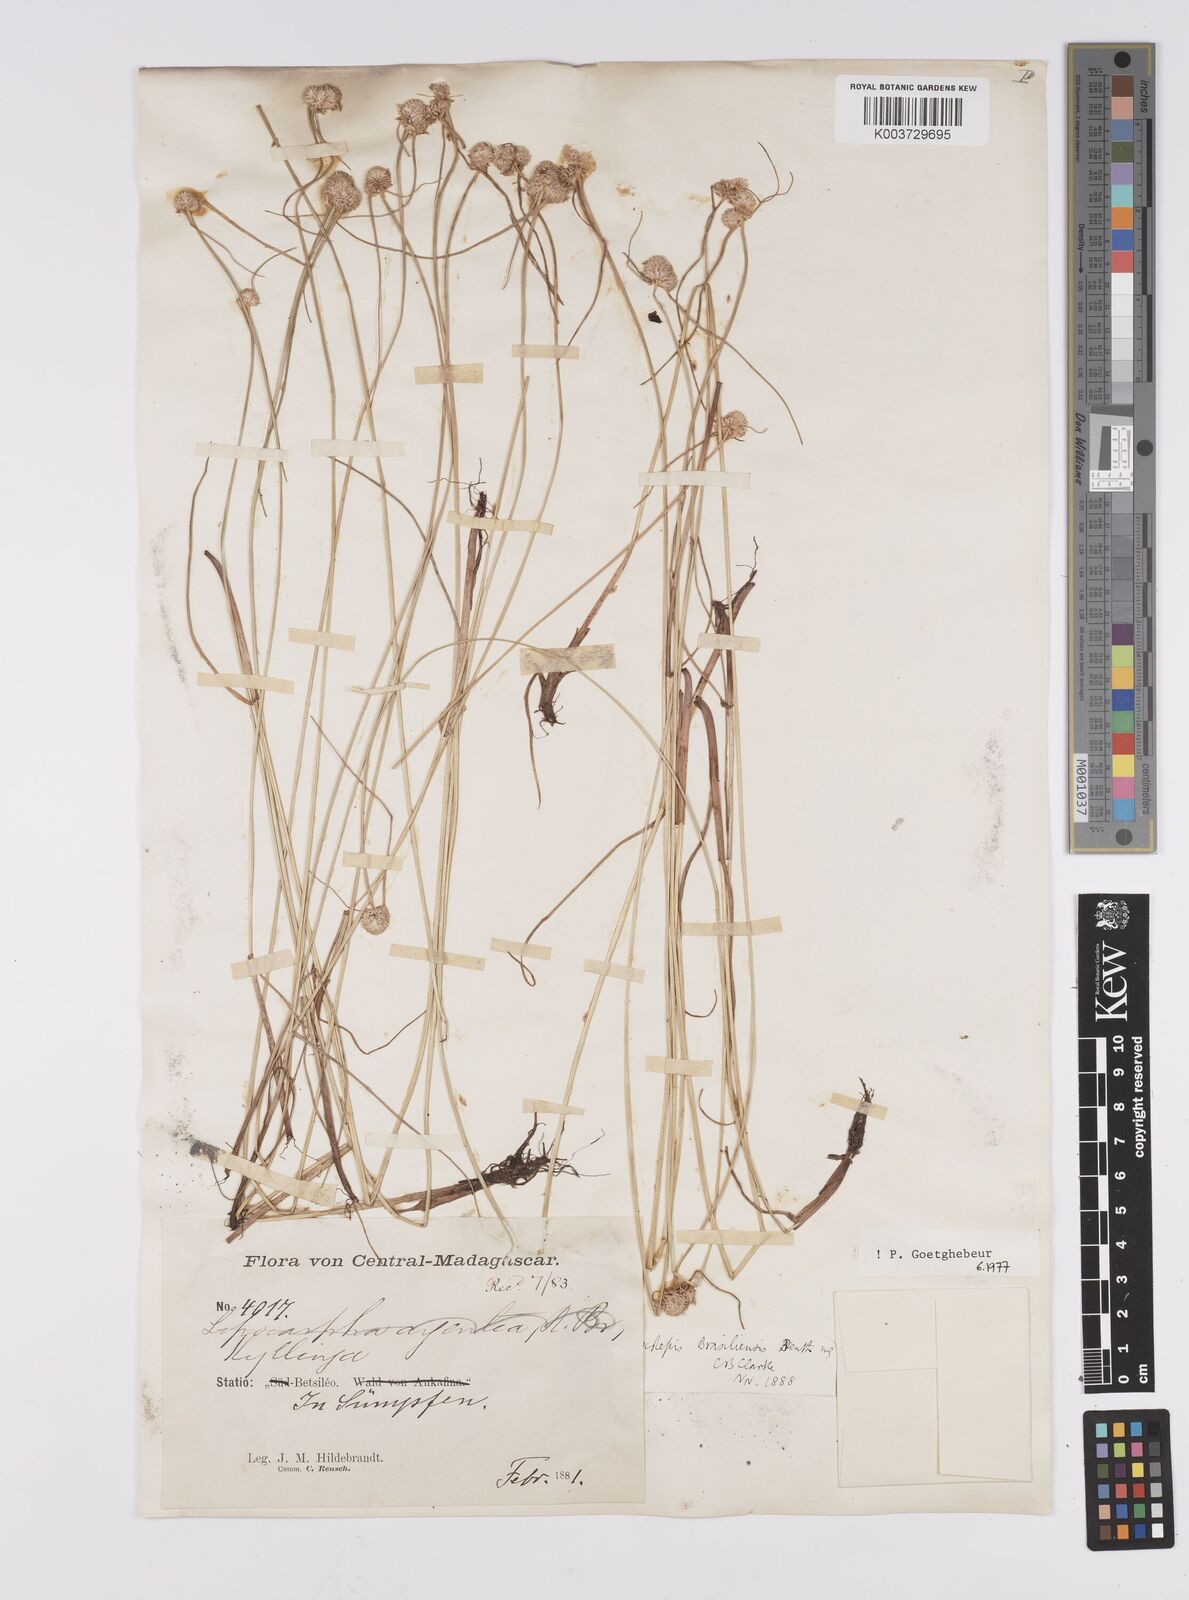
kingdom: Plantae
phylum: Tracheophyta
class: Liliopsida
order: Poales
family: Cyperaceae
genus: Cyperus
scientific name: Cyperus brasiliensis
